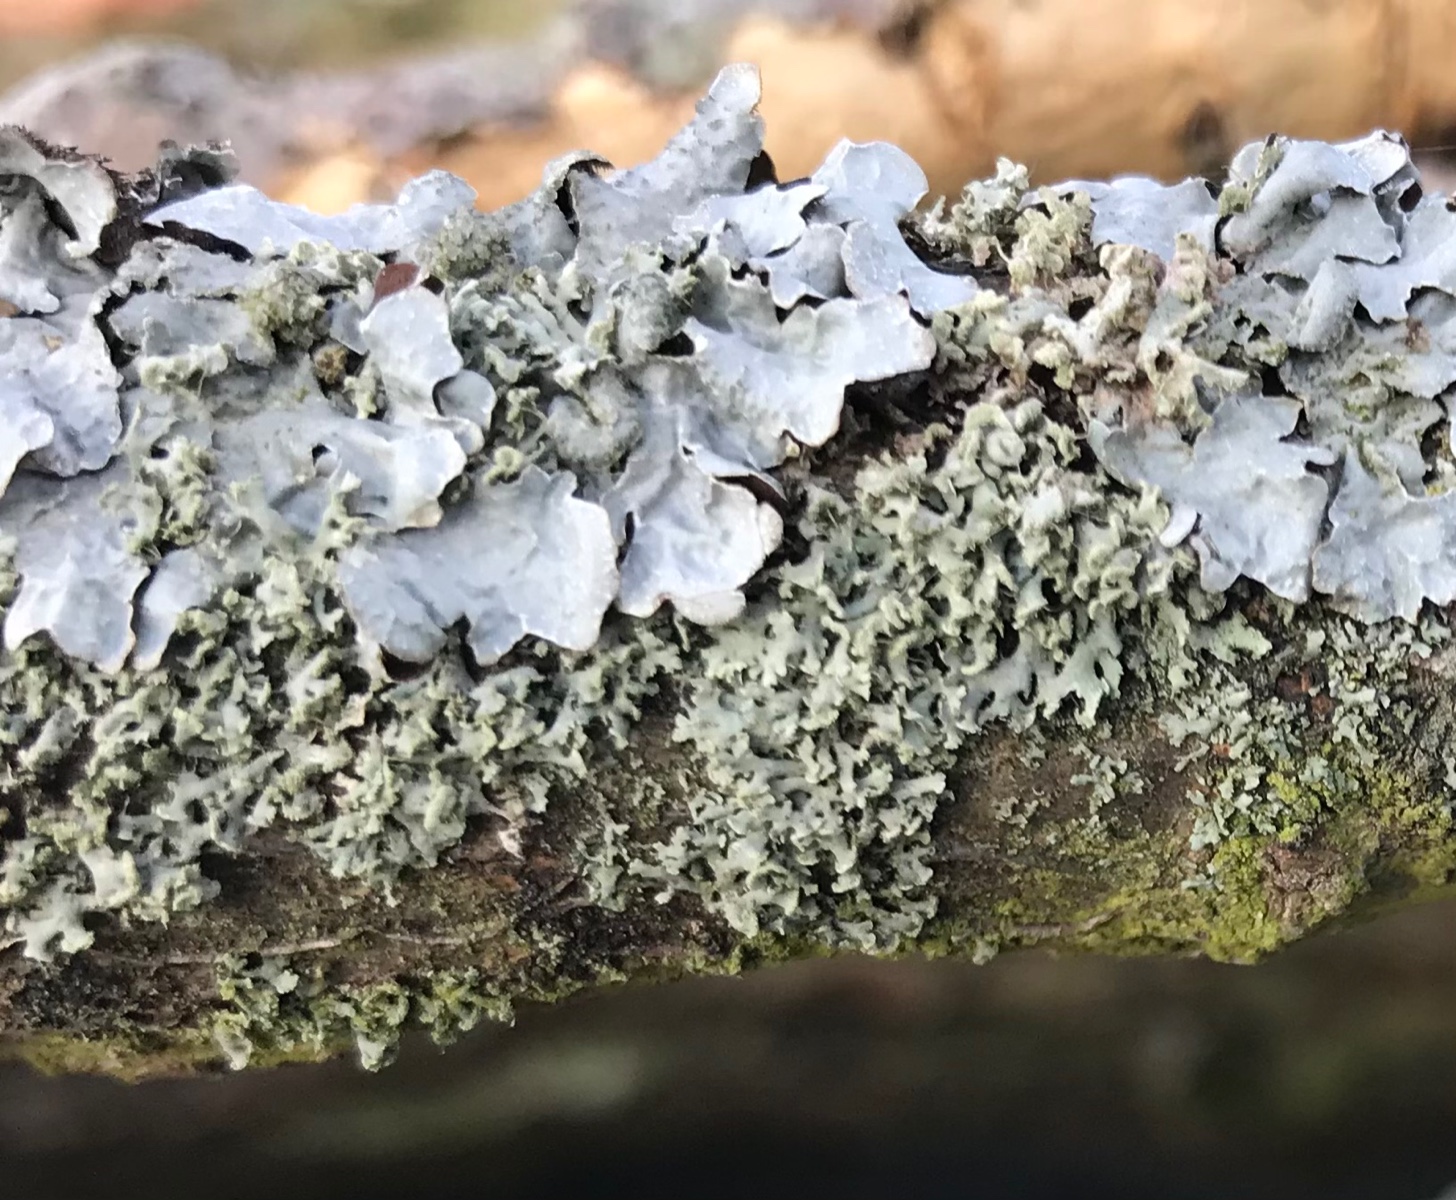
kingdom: Fungi
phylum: Ascomycota
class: Lecanoromycetes
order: Lecanorales
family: Parmeliaceae
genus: Parmelia
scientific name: Parmelia sulcata
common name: rynket skållav
